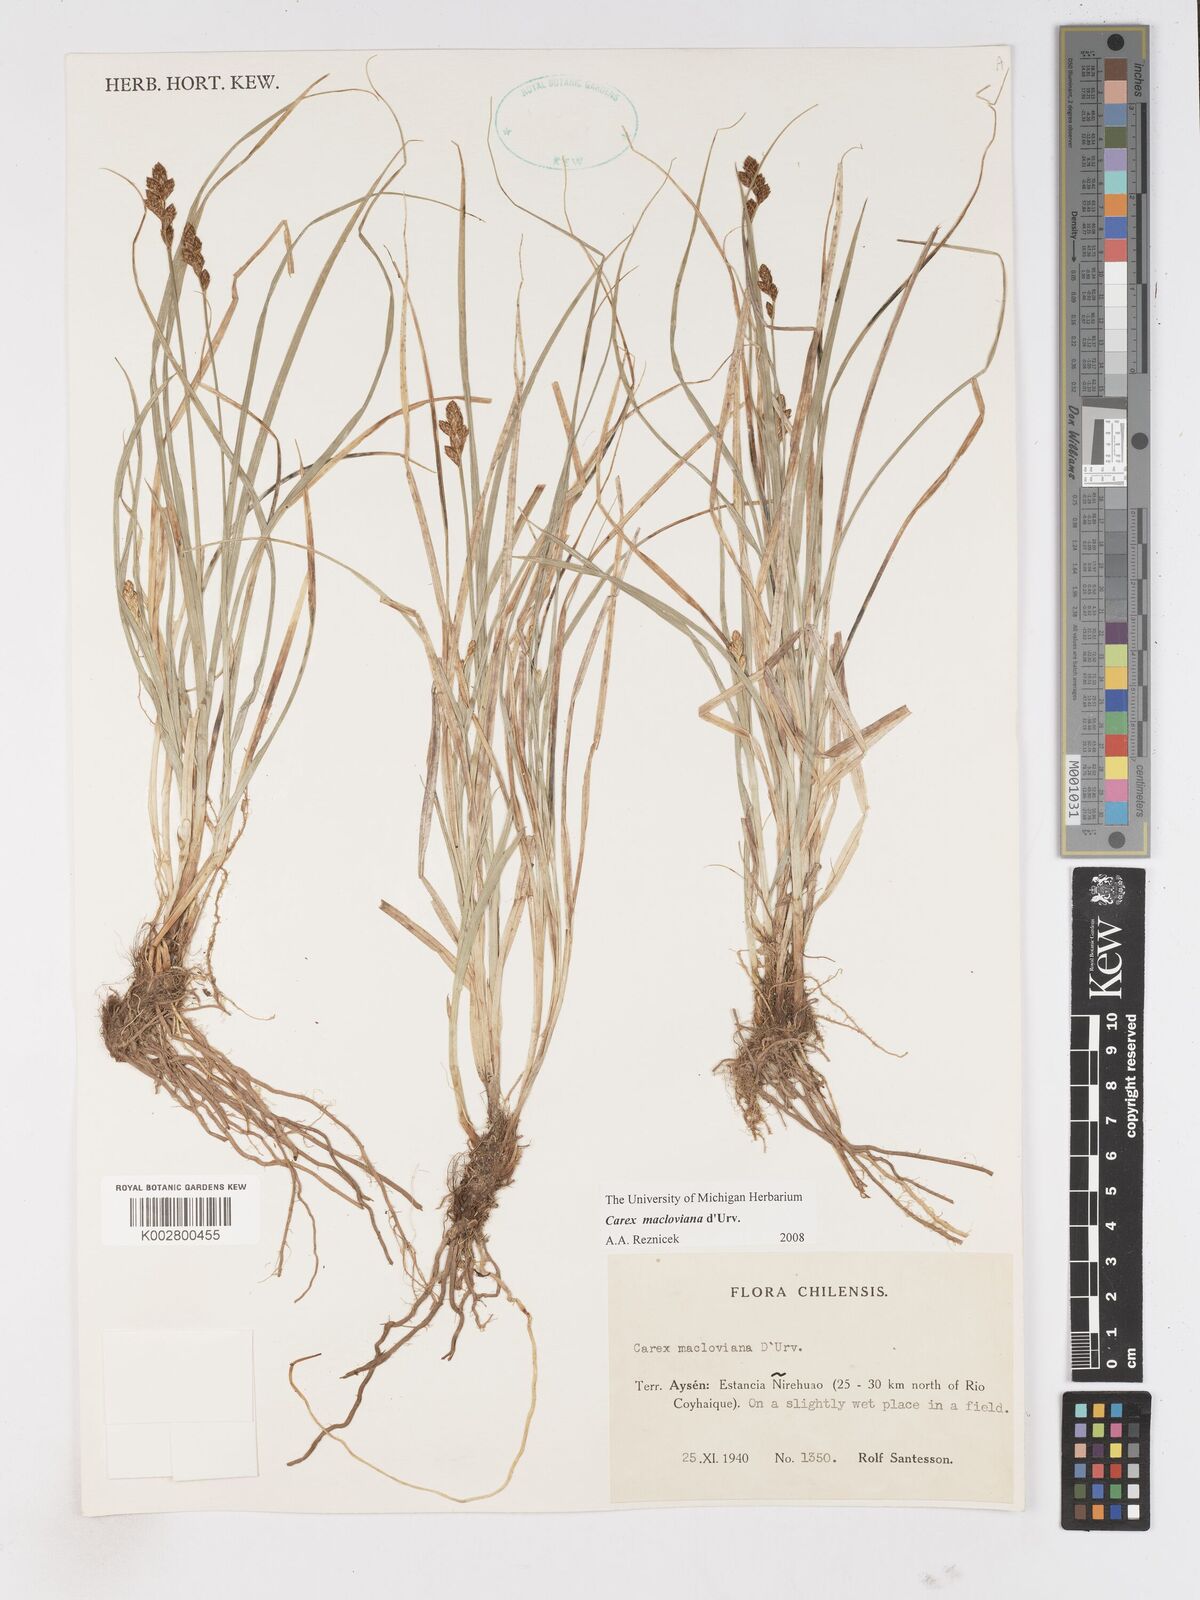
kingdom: Plantae
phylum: Tracheophyta
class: Liliopsida
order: Poales
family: Cyperaceae
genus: Carex
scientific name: Carex macloviana
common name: Falkland island sedge
